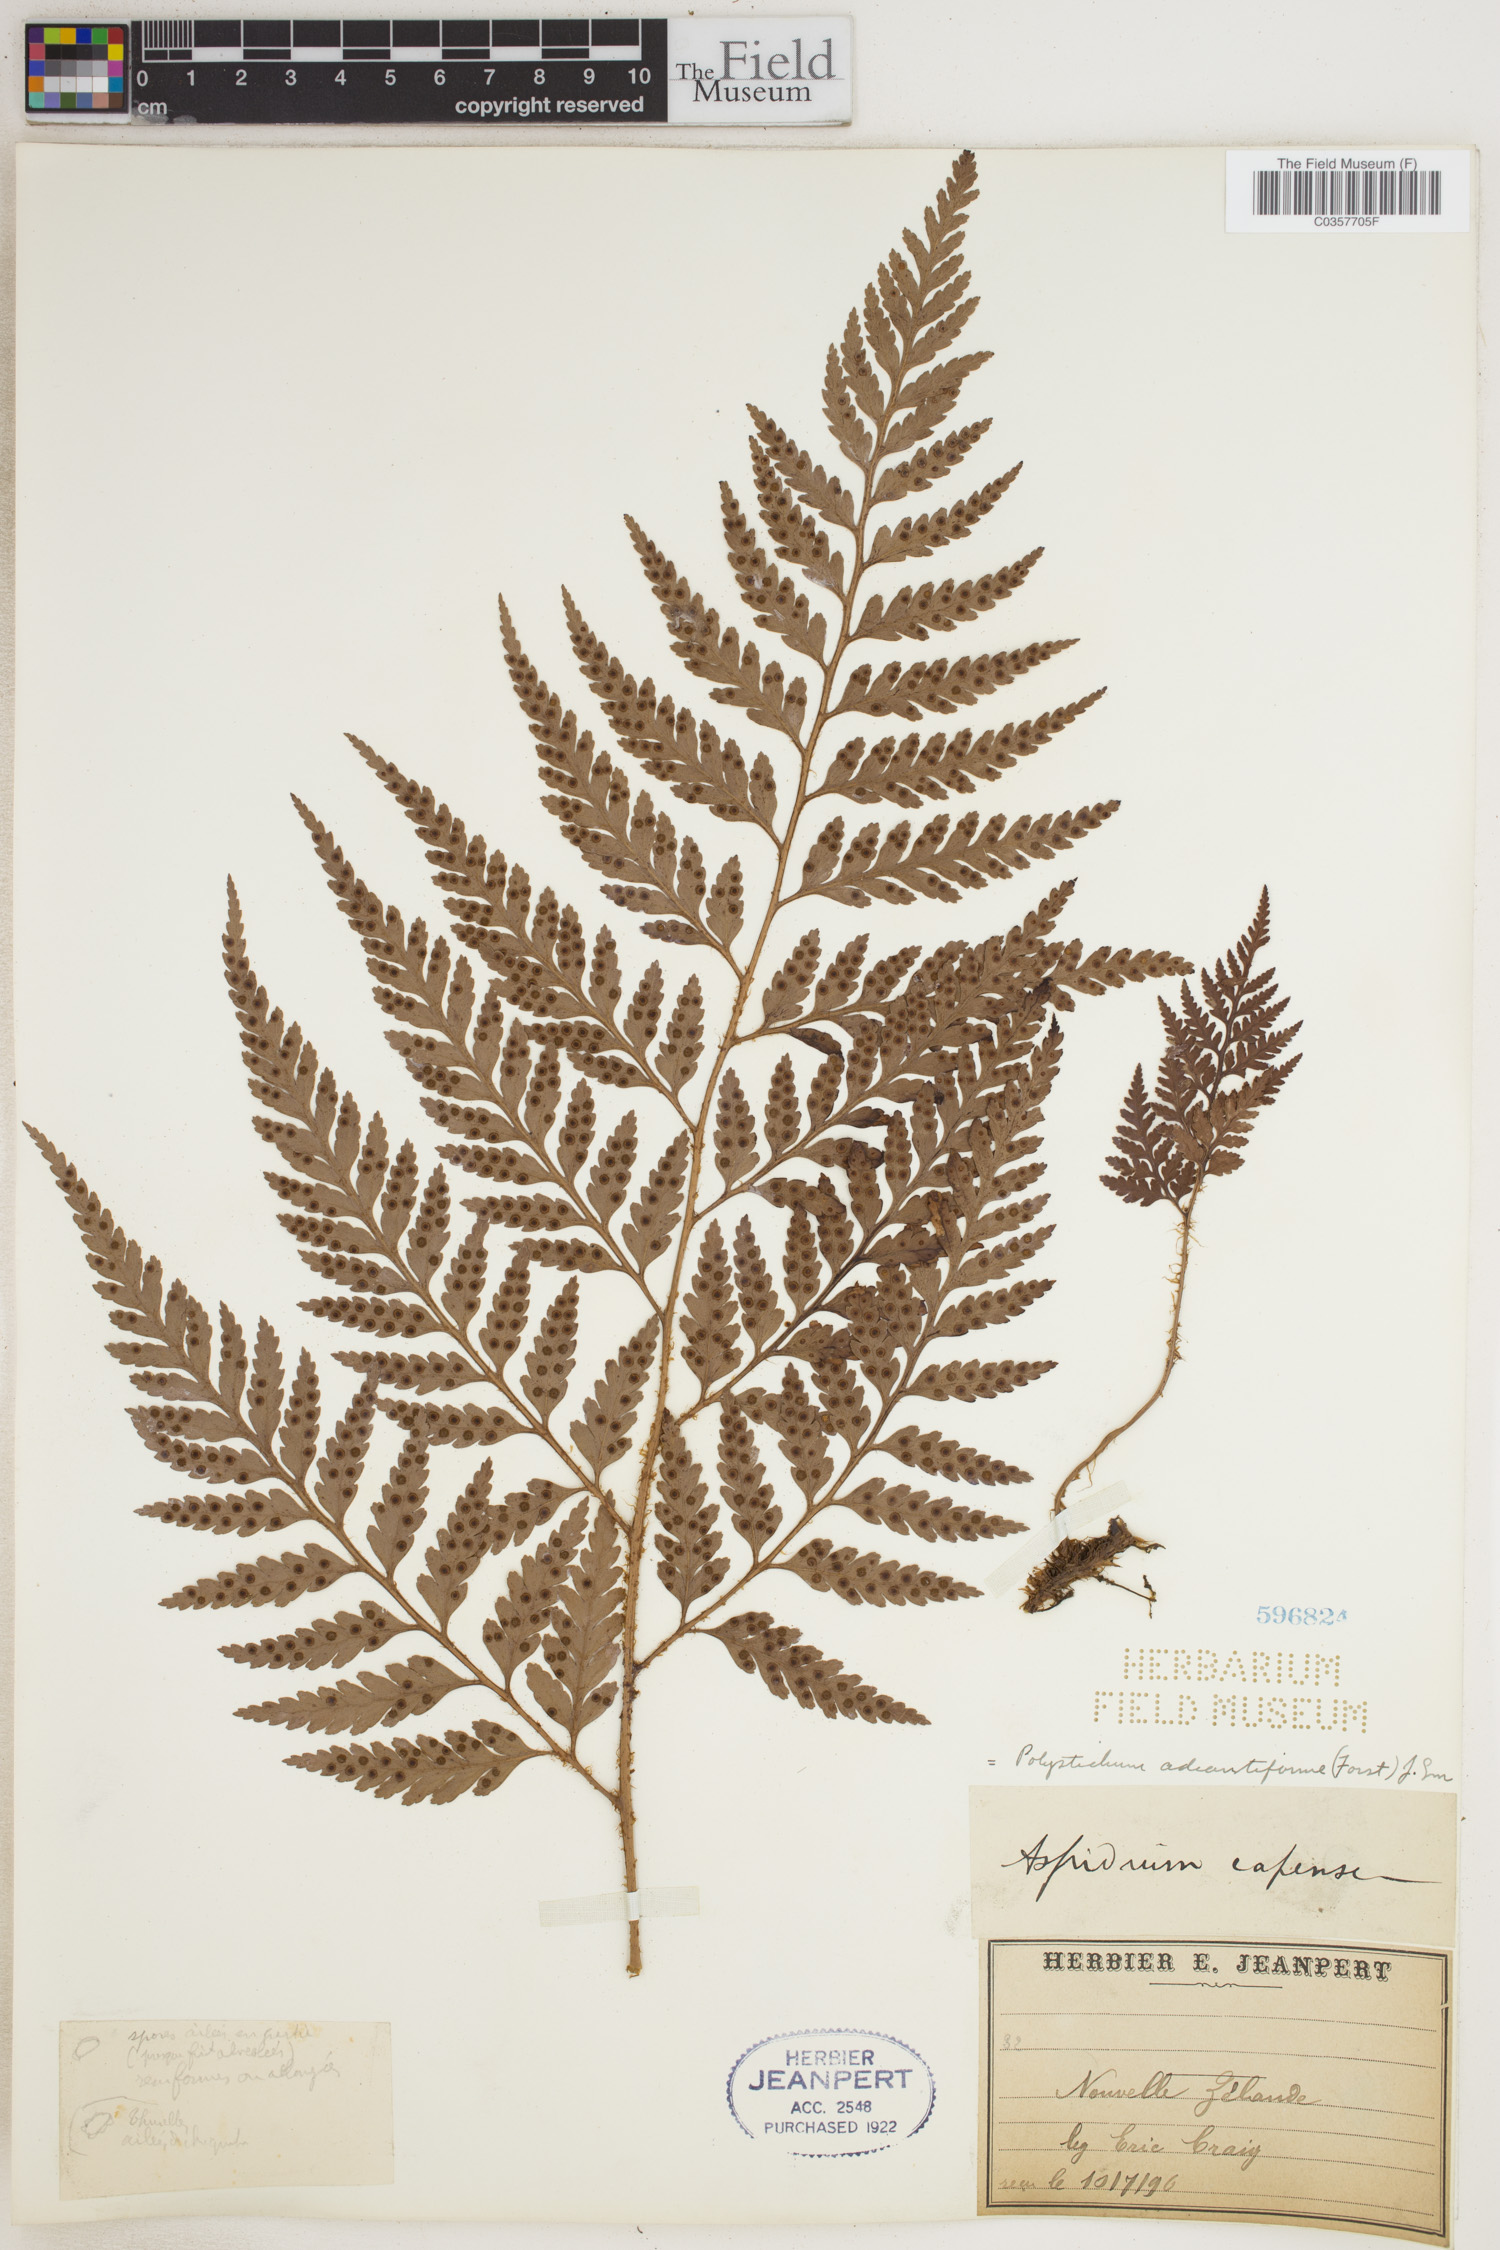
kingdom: Plantae
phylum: Tracheophyta
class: Polypodiopsida
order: Polypodiales
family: Dryopteridaceae
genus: Rumohra
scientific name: Rumohra adiantiformis
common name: Leather fern
